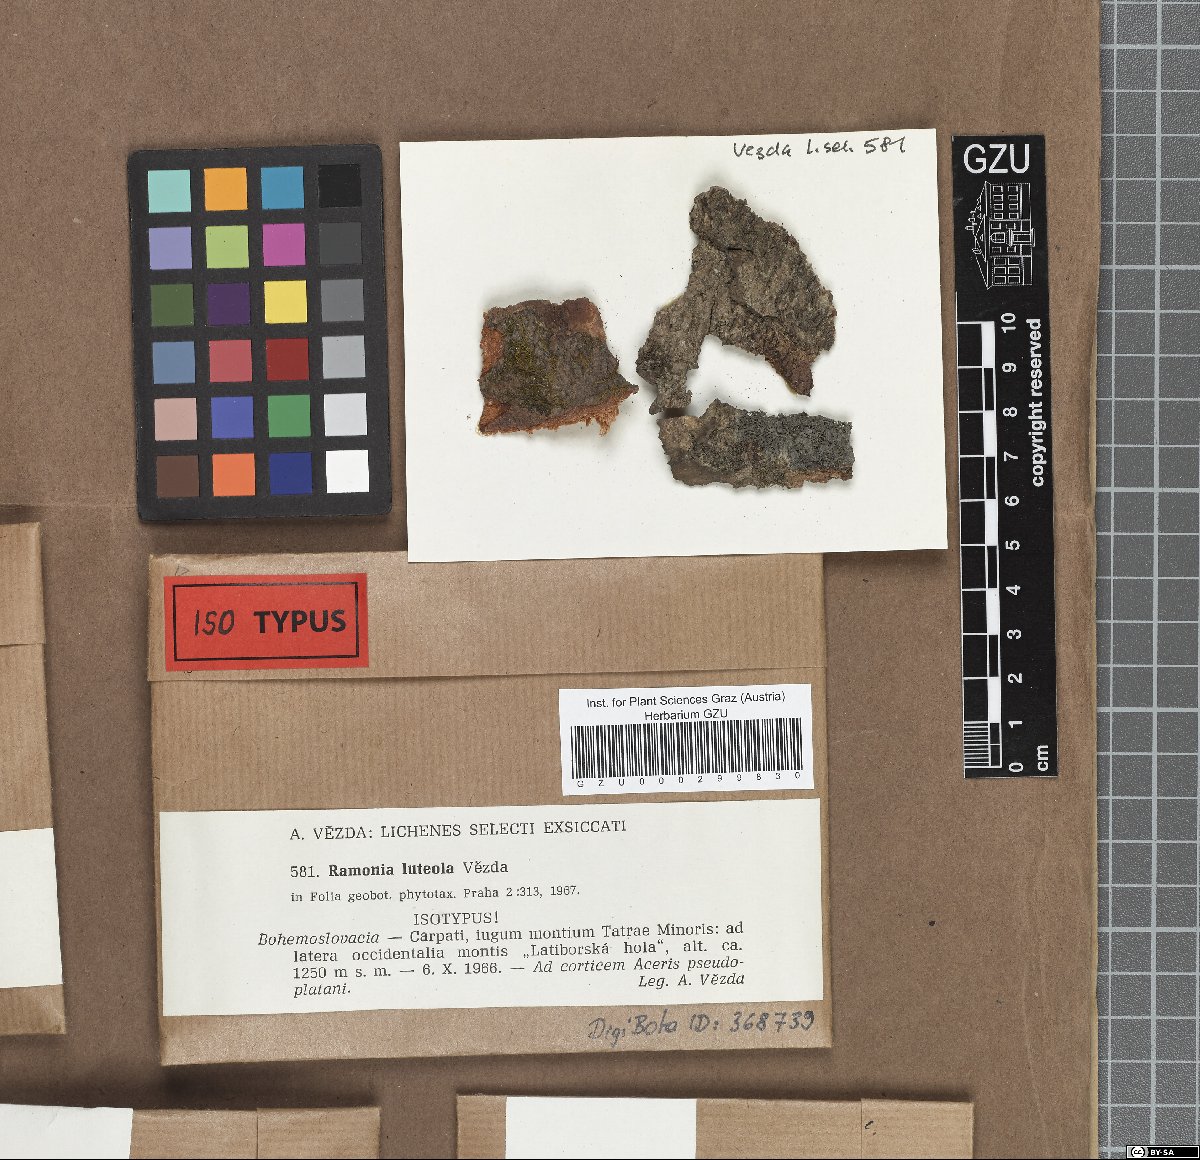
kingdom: Fungi
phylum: Ascomycota
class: Lecanoromycetes
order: Gyalectales
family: Gyalectaceae
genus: Ramonia
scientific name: Ramonia luteola
